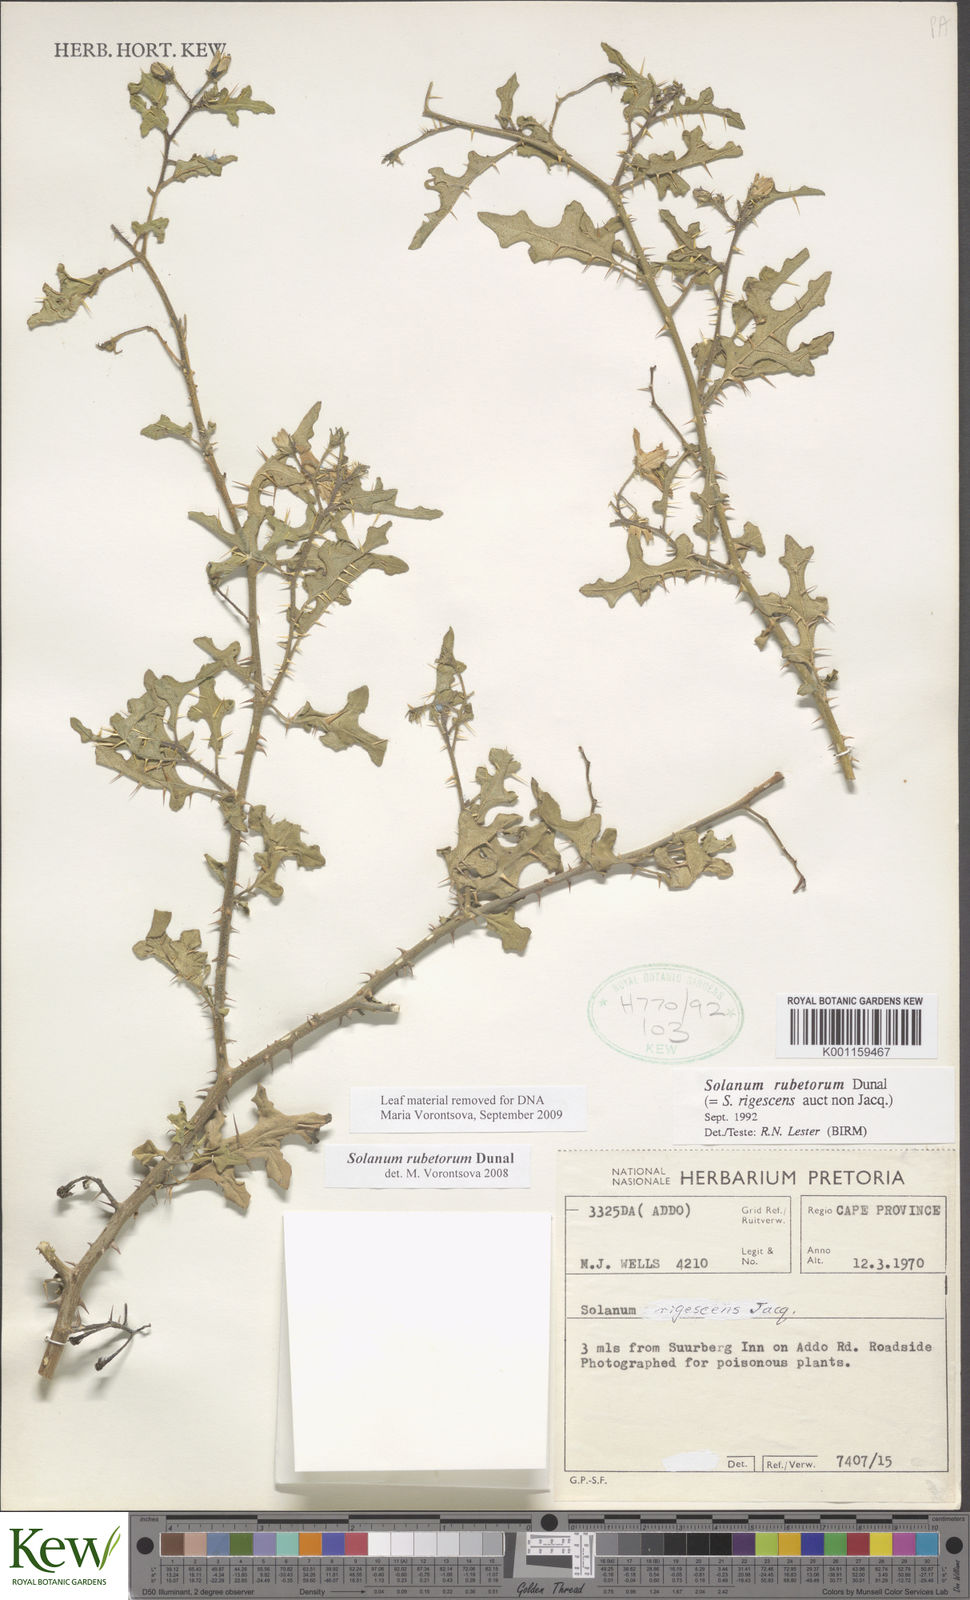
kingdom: Plantae
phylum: Tracheophyta
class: Magnoliopsida
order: Solanales
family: Solanaceae
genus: Solanum
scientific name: Solanum rubetorum
